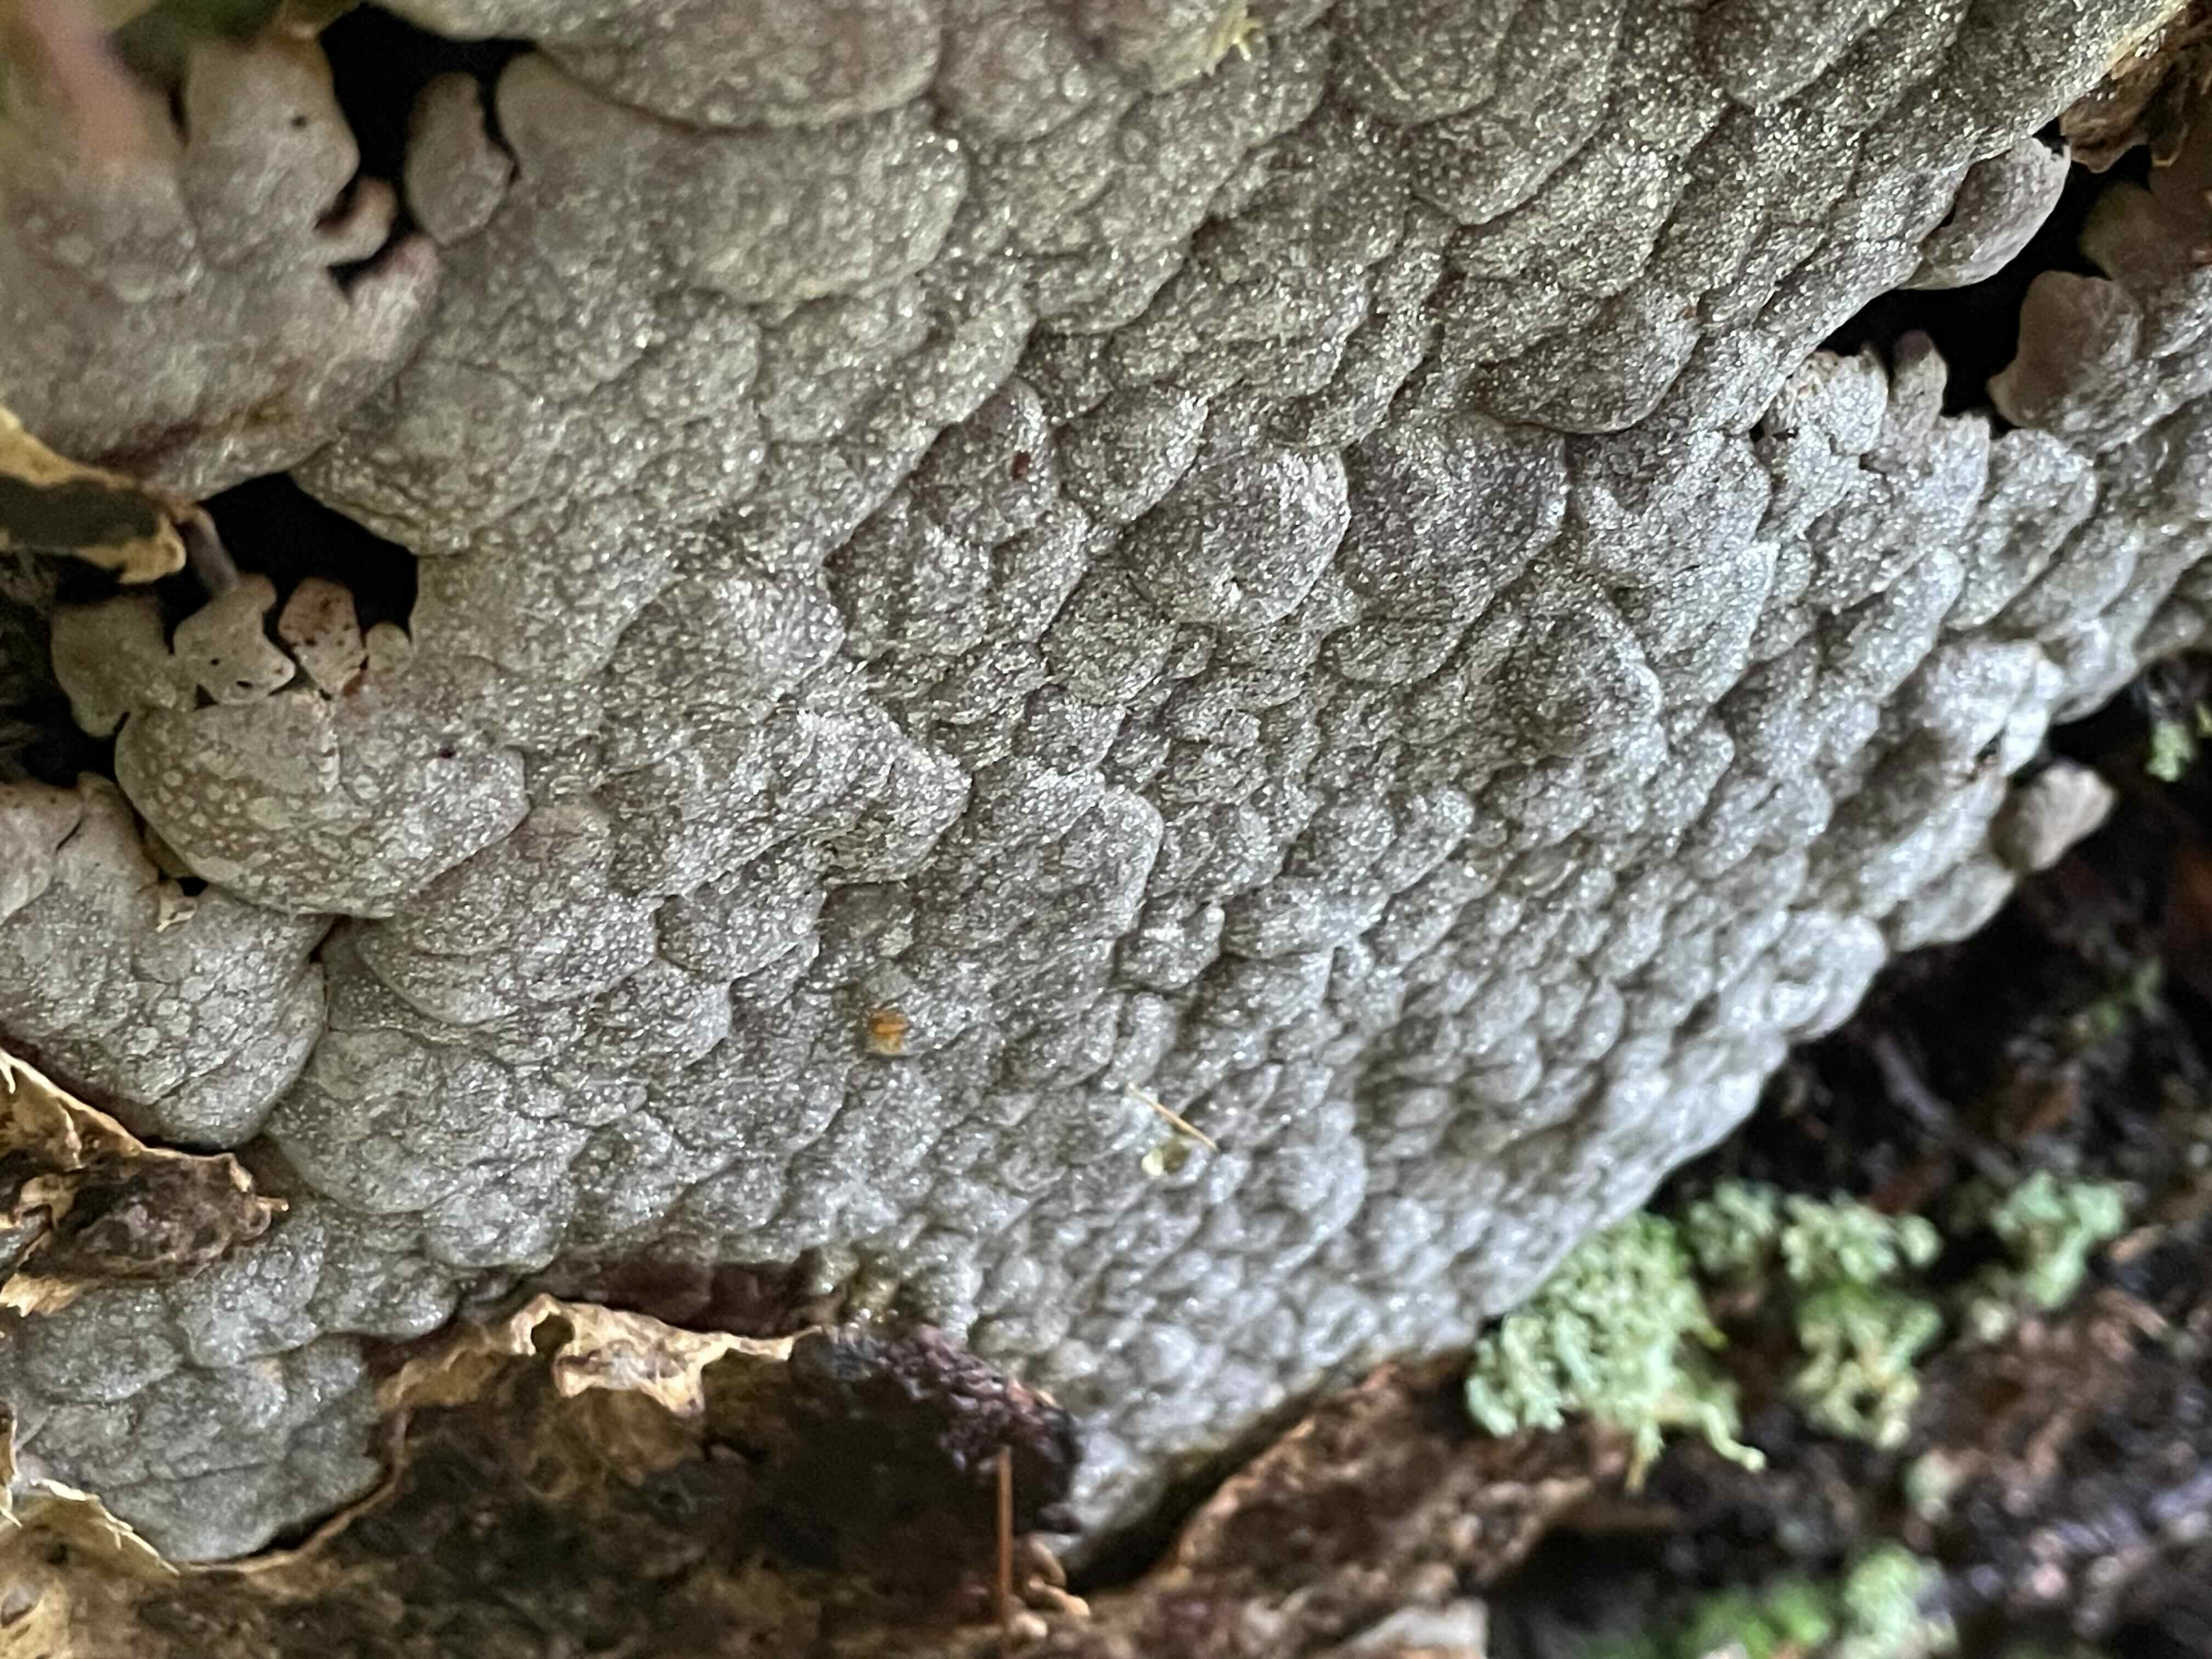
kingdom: Fungi
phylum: Basidiomycota
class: Agaricomycetes
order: Russulales
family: Stereaceae
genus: Xylobolus
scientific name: Xylobolus frustulatus
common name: mønster-lædersvamp
